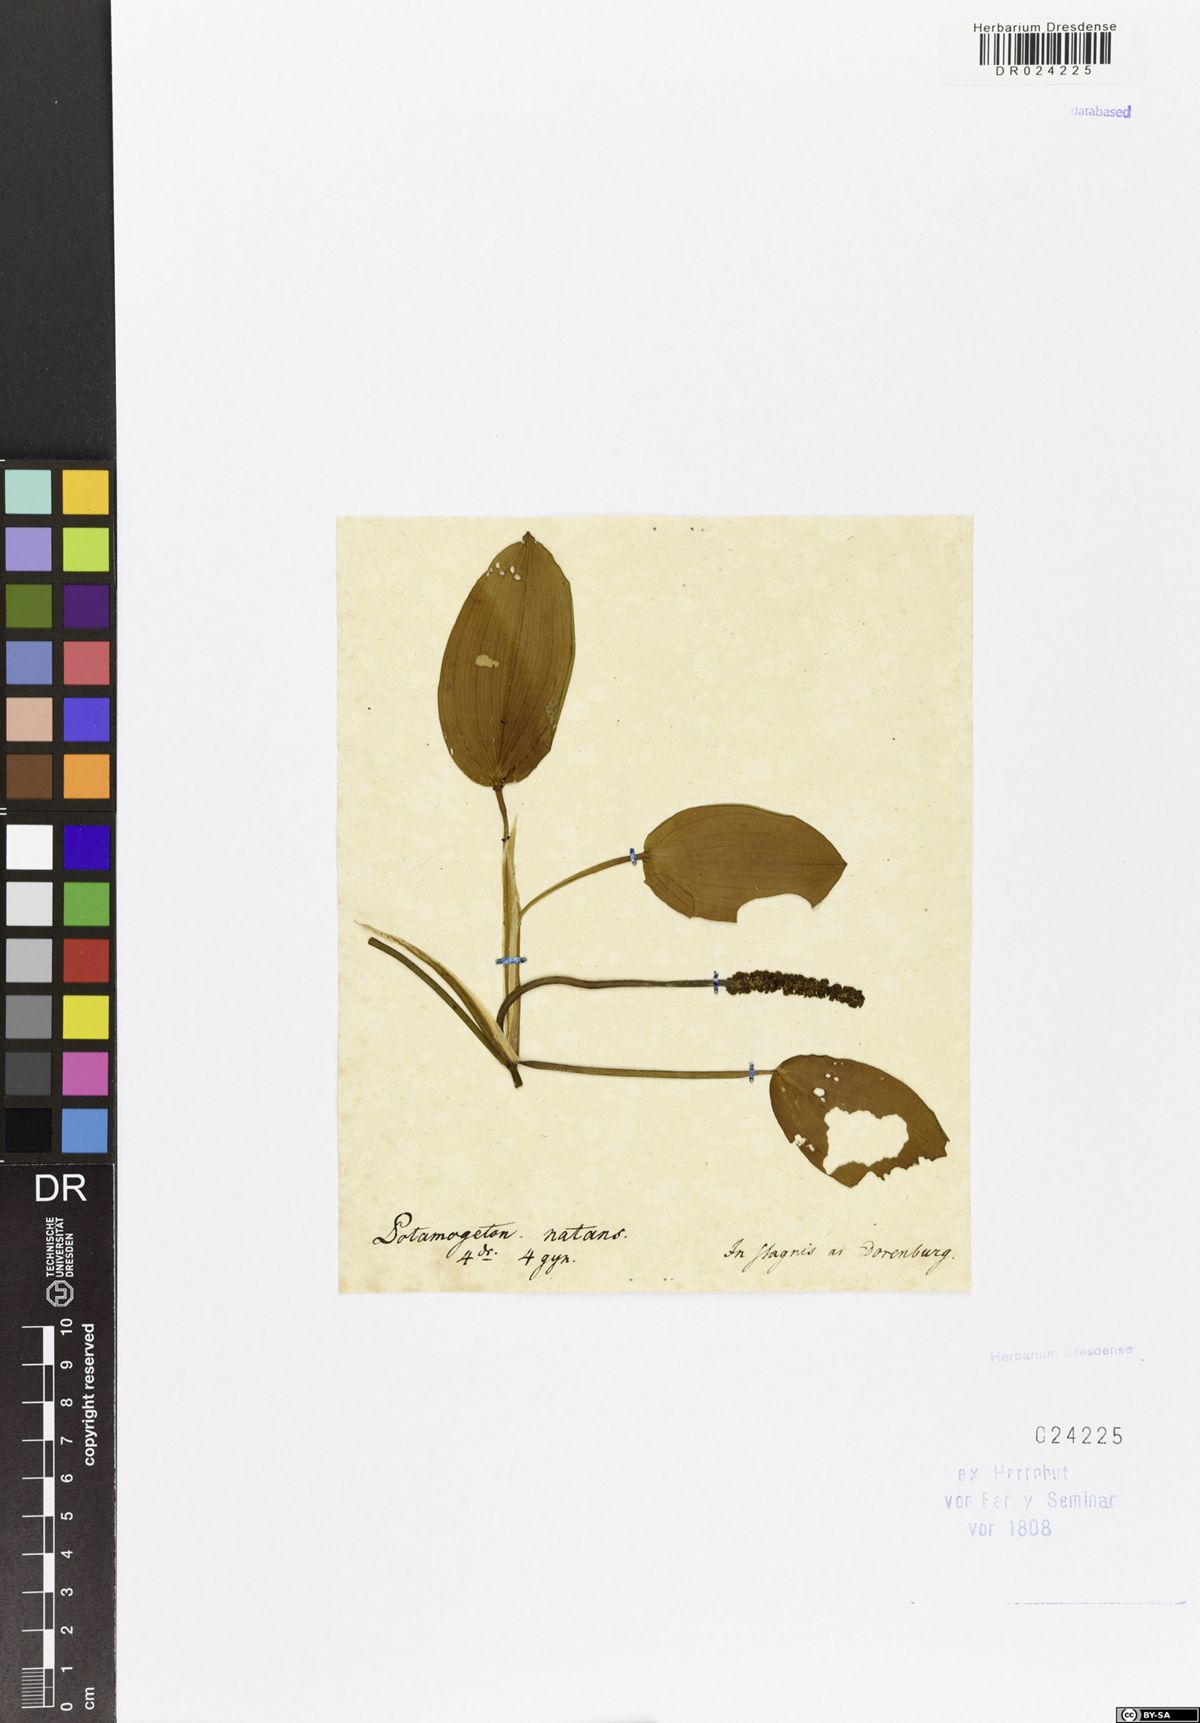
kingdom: Plantae
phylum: Tracheophyta
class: Liliopsida
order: Alismatales
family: Potamogetonaceae
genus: Potamogeton
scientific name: Potamogeton natans
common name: Broad-leaved pondweed
